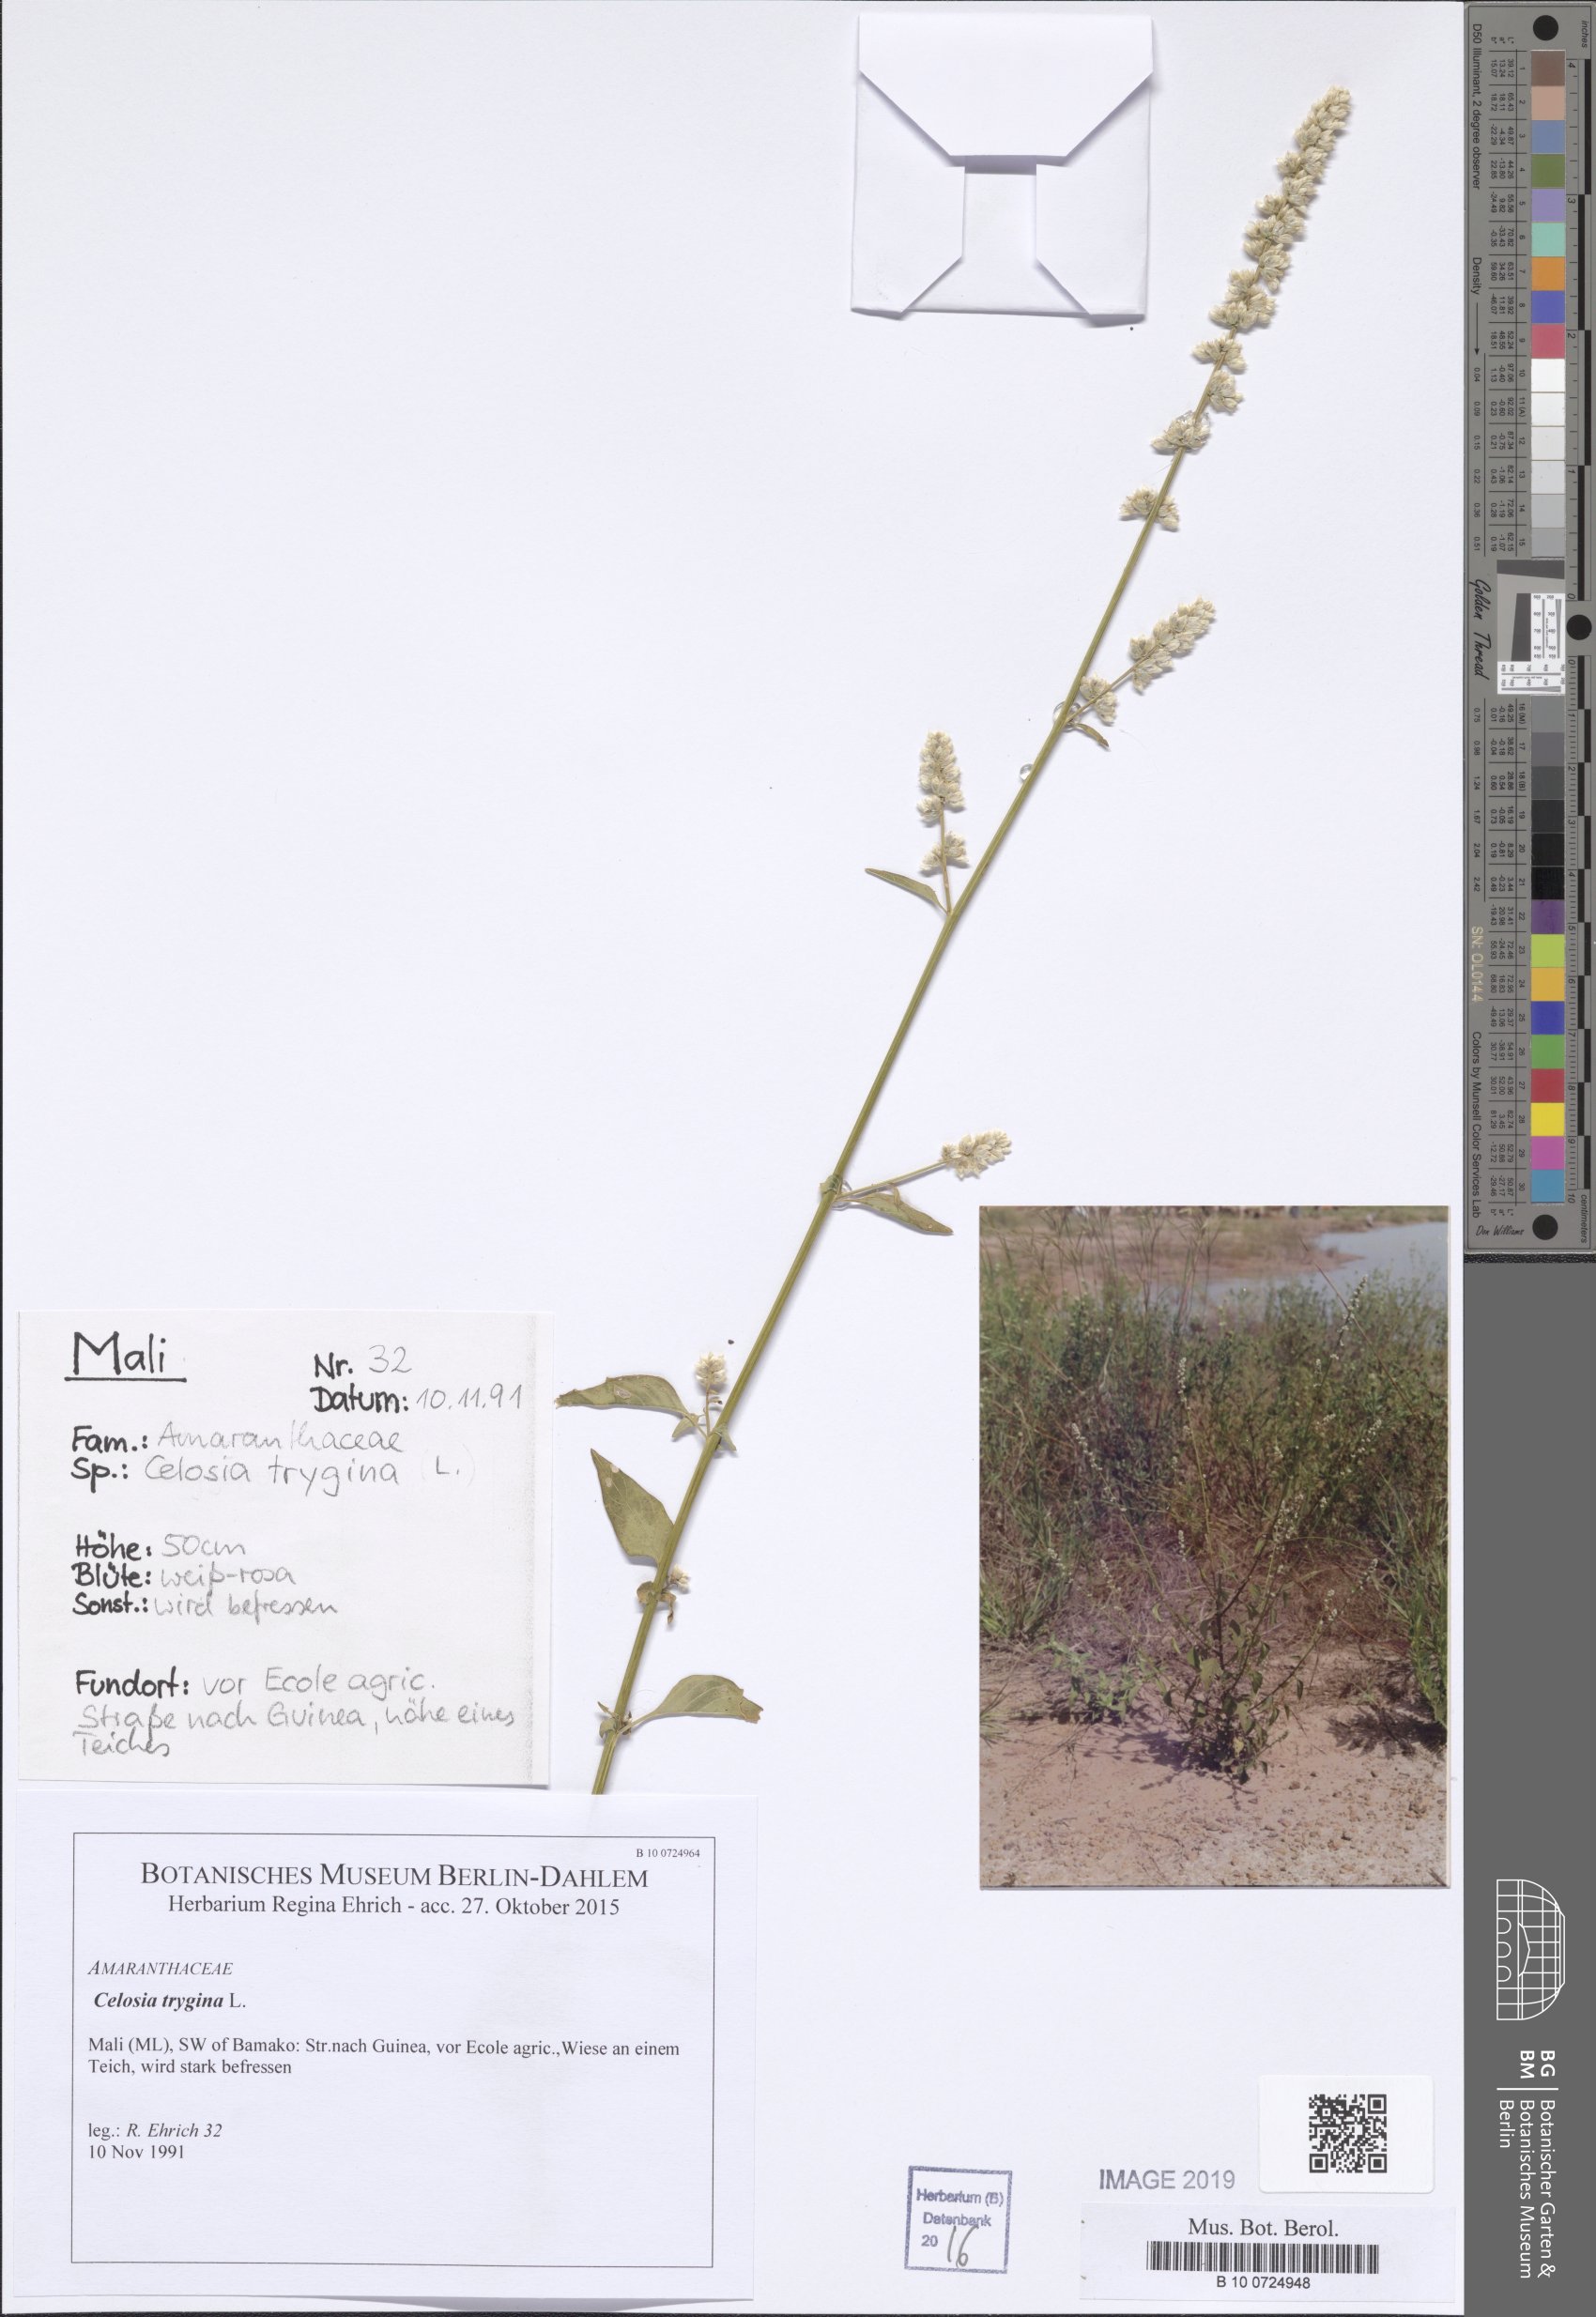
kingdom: Plantae
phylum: Tracheophyta
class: Magnoliopsida
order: Fabales
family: Fabaceae
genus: Crotalaria
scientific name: Crotalaria retusa
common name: Rattleweed
